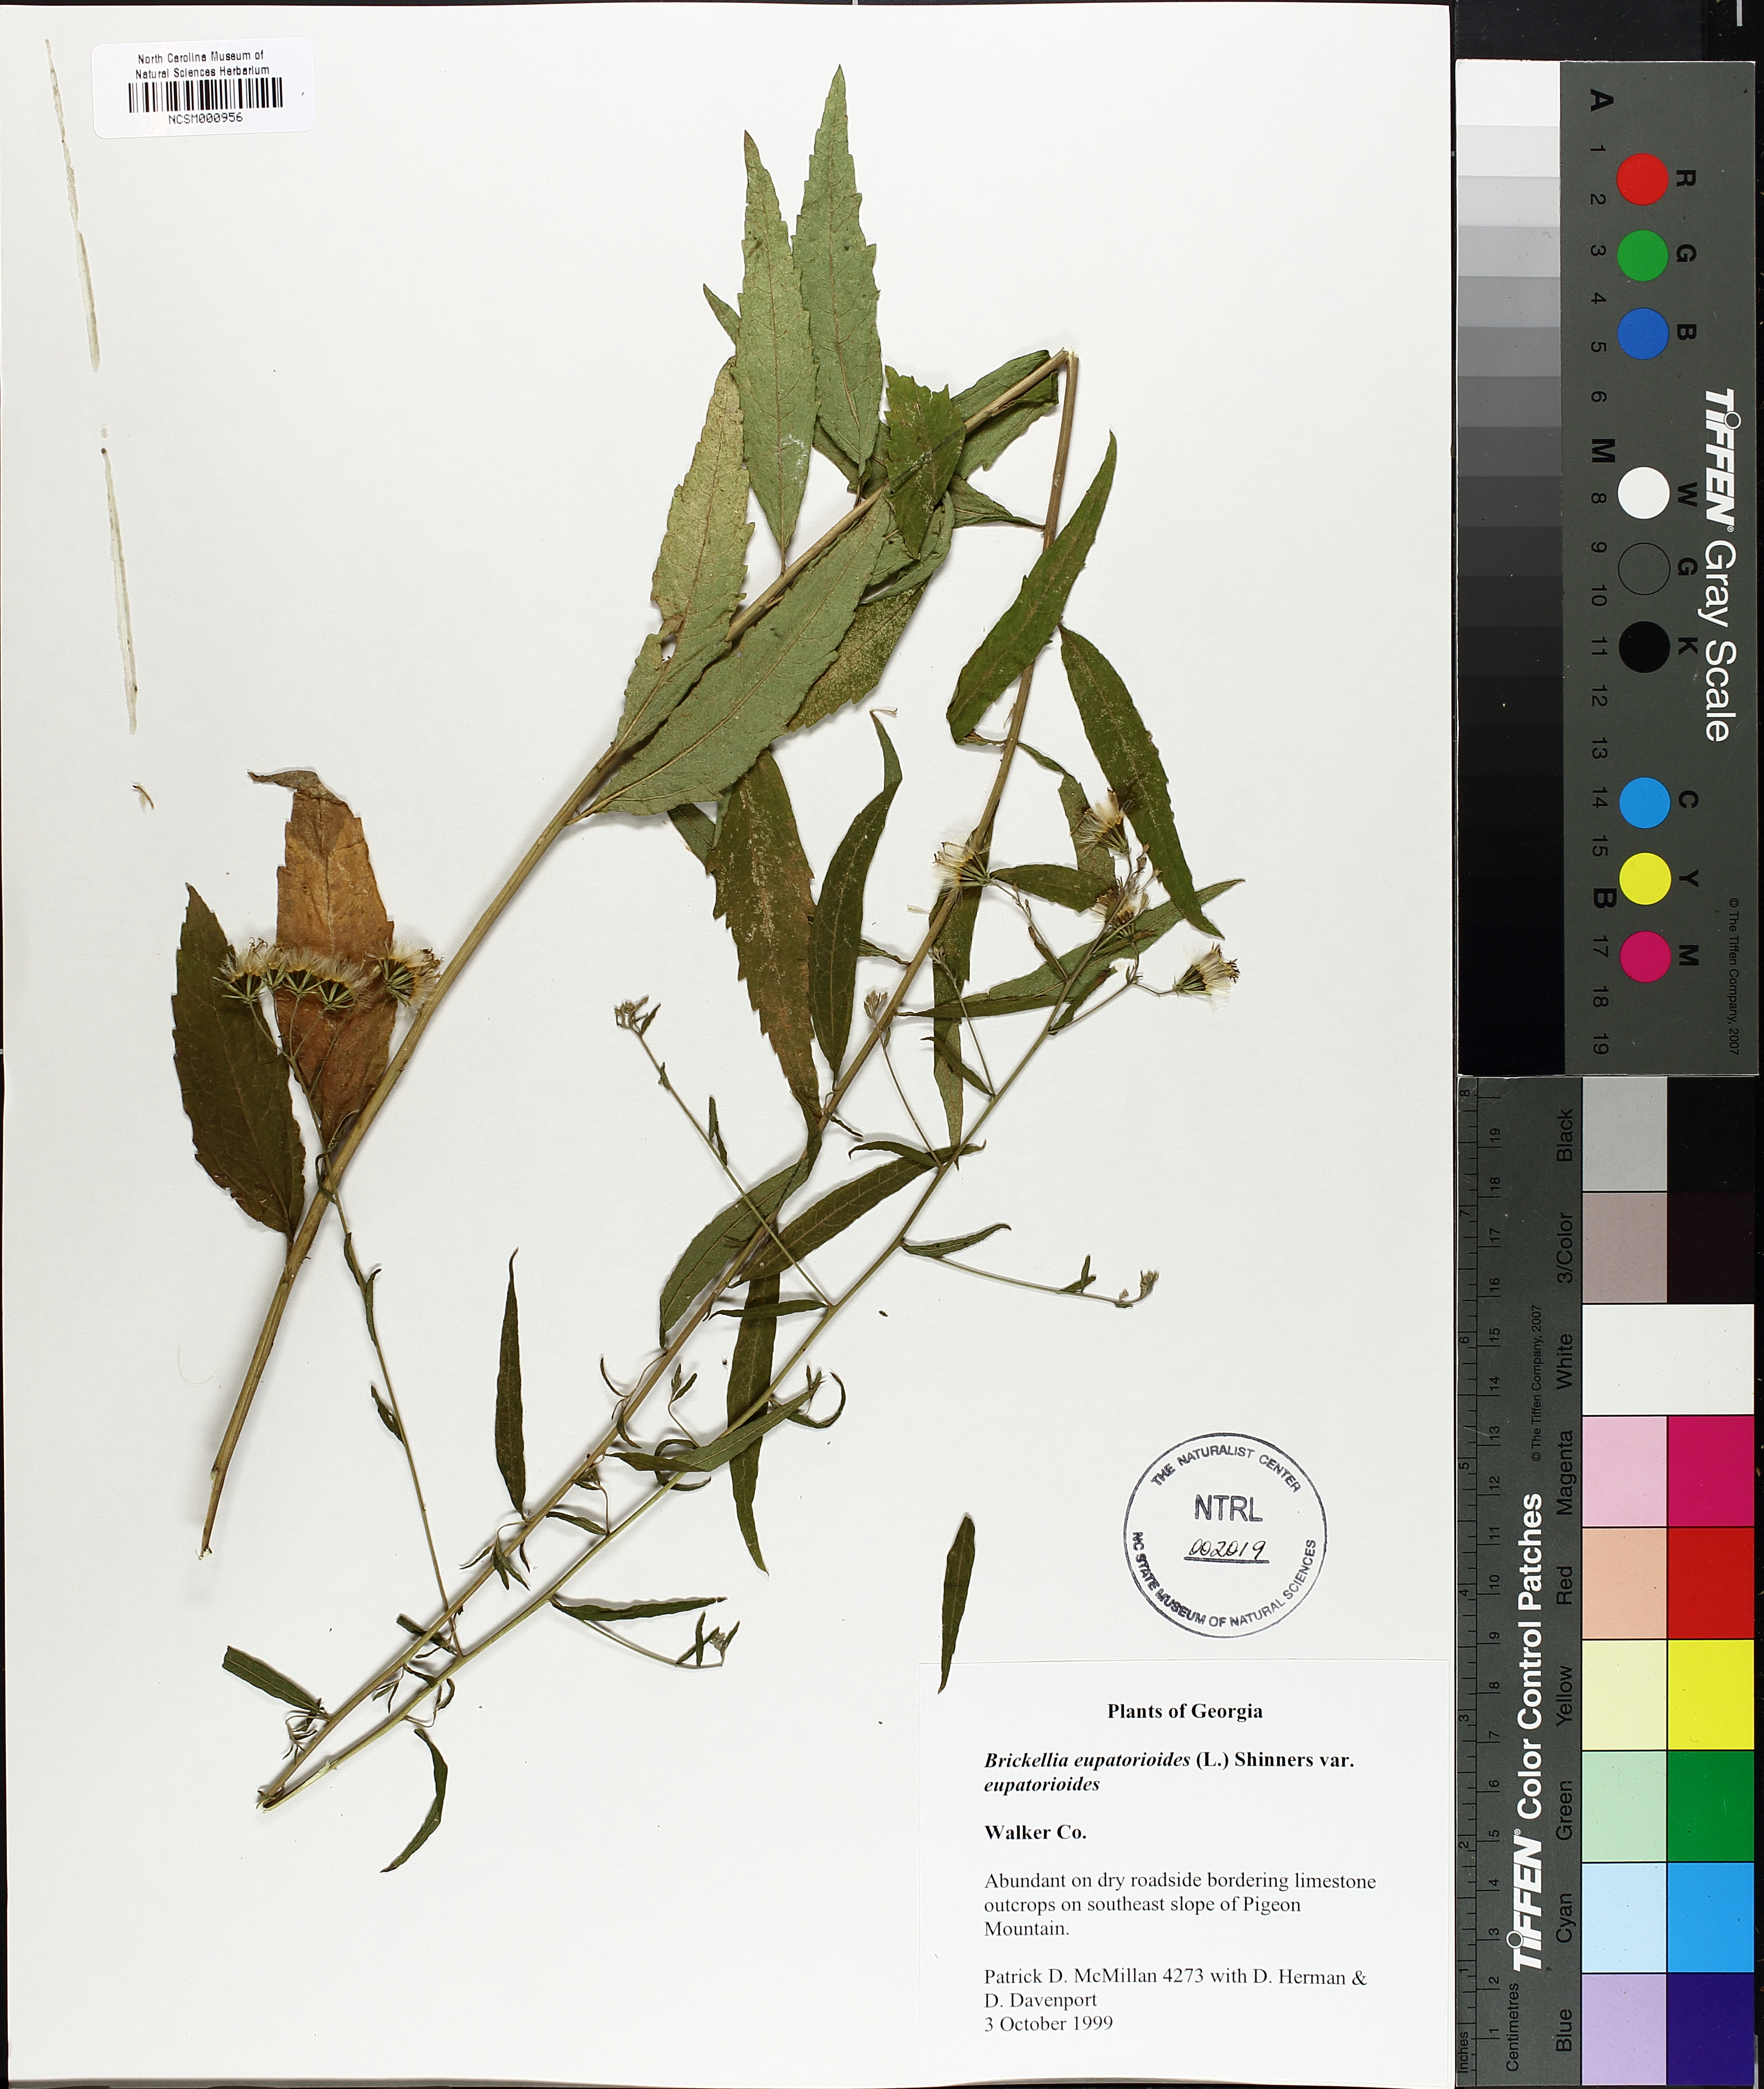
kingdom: Plantae
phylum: Tracheophyta
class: Magnoliopsida
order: Asterales
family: Asteraceae
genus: Brickellia
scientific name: Brickellia eupatorioides
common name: False boneset
